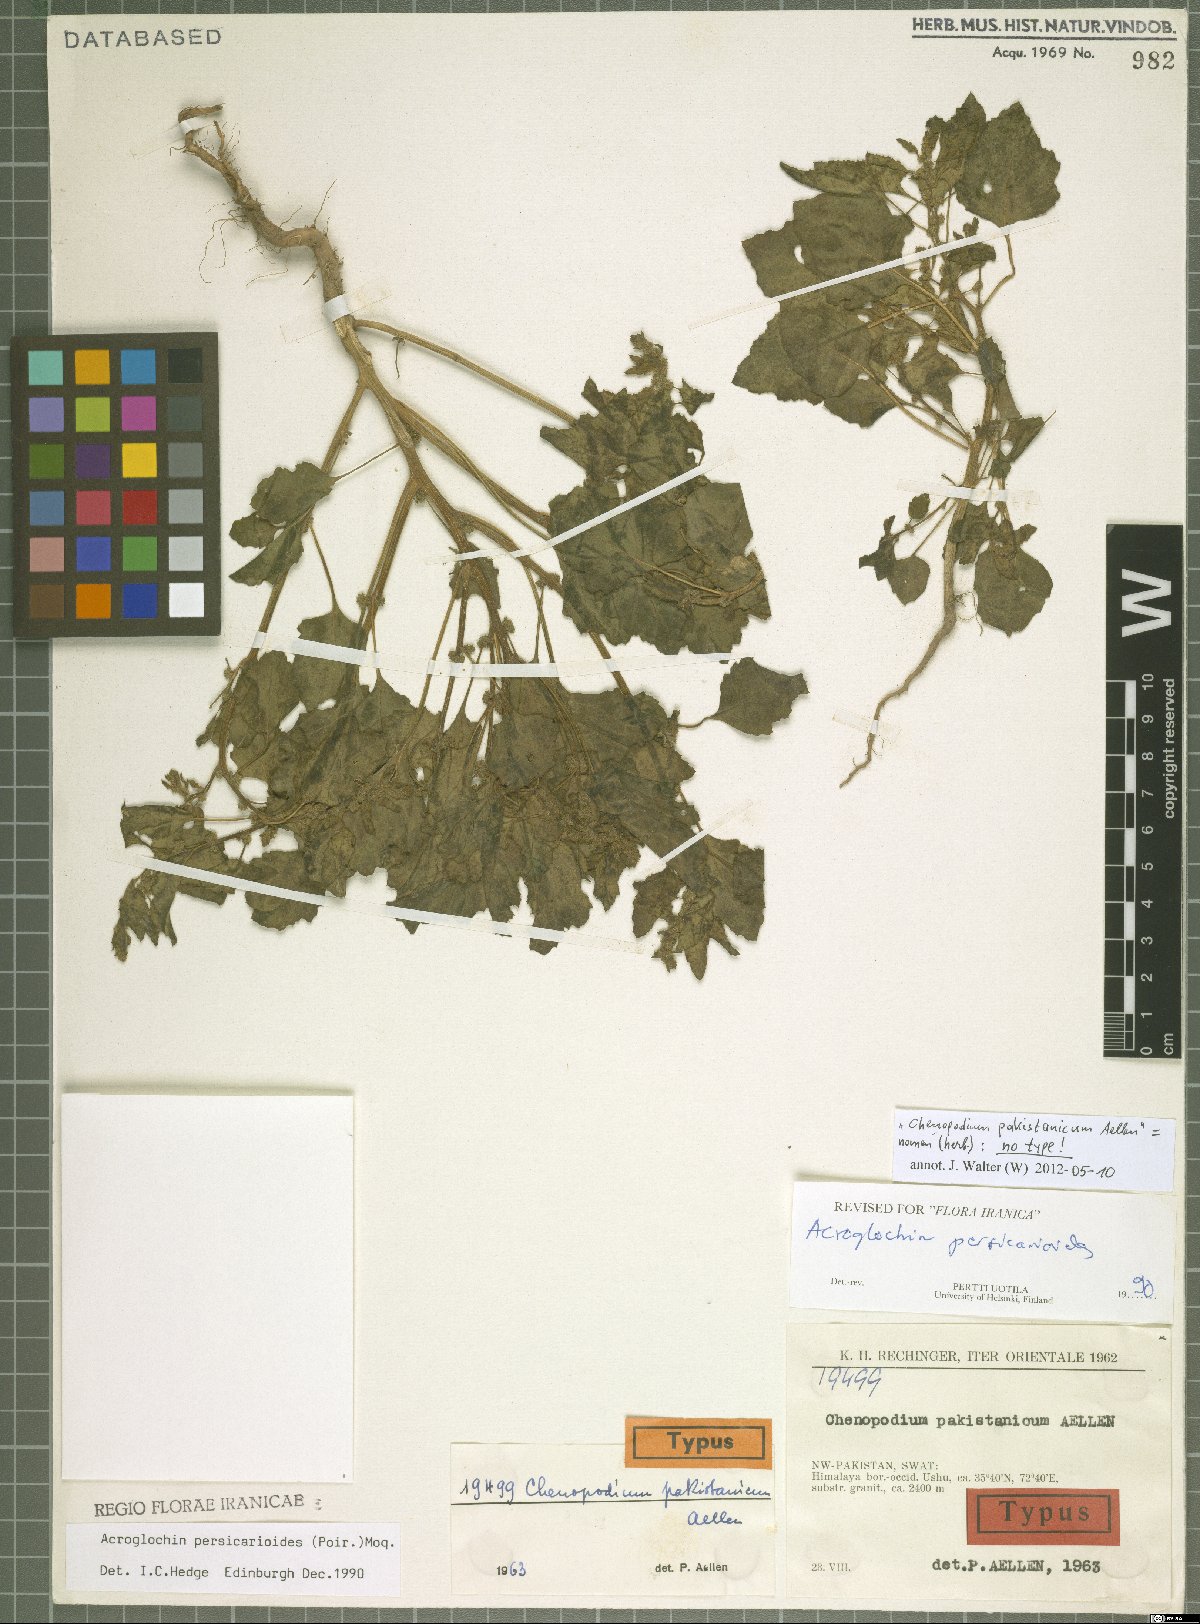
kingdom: Plantae
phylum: Tracheophyta
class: Magnoliopsida
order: Caryophyllales
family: Amaranthaceae
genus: Acroglochin
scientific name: Acroglochin persicarioides
